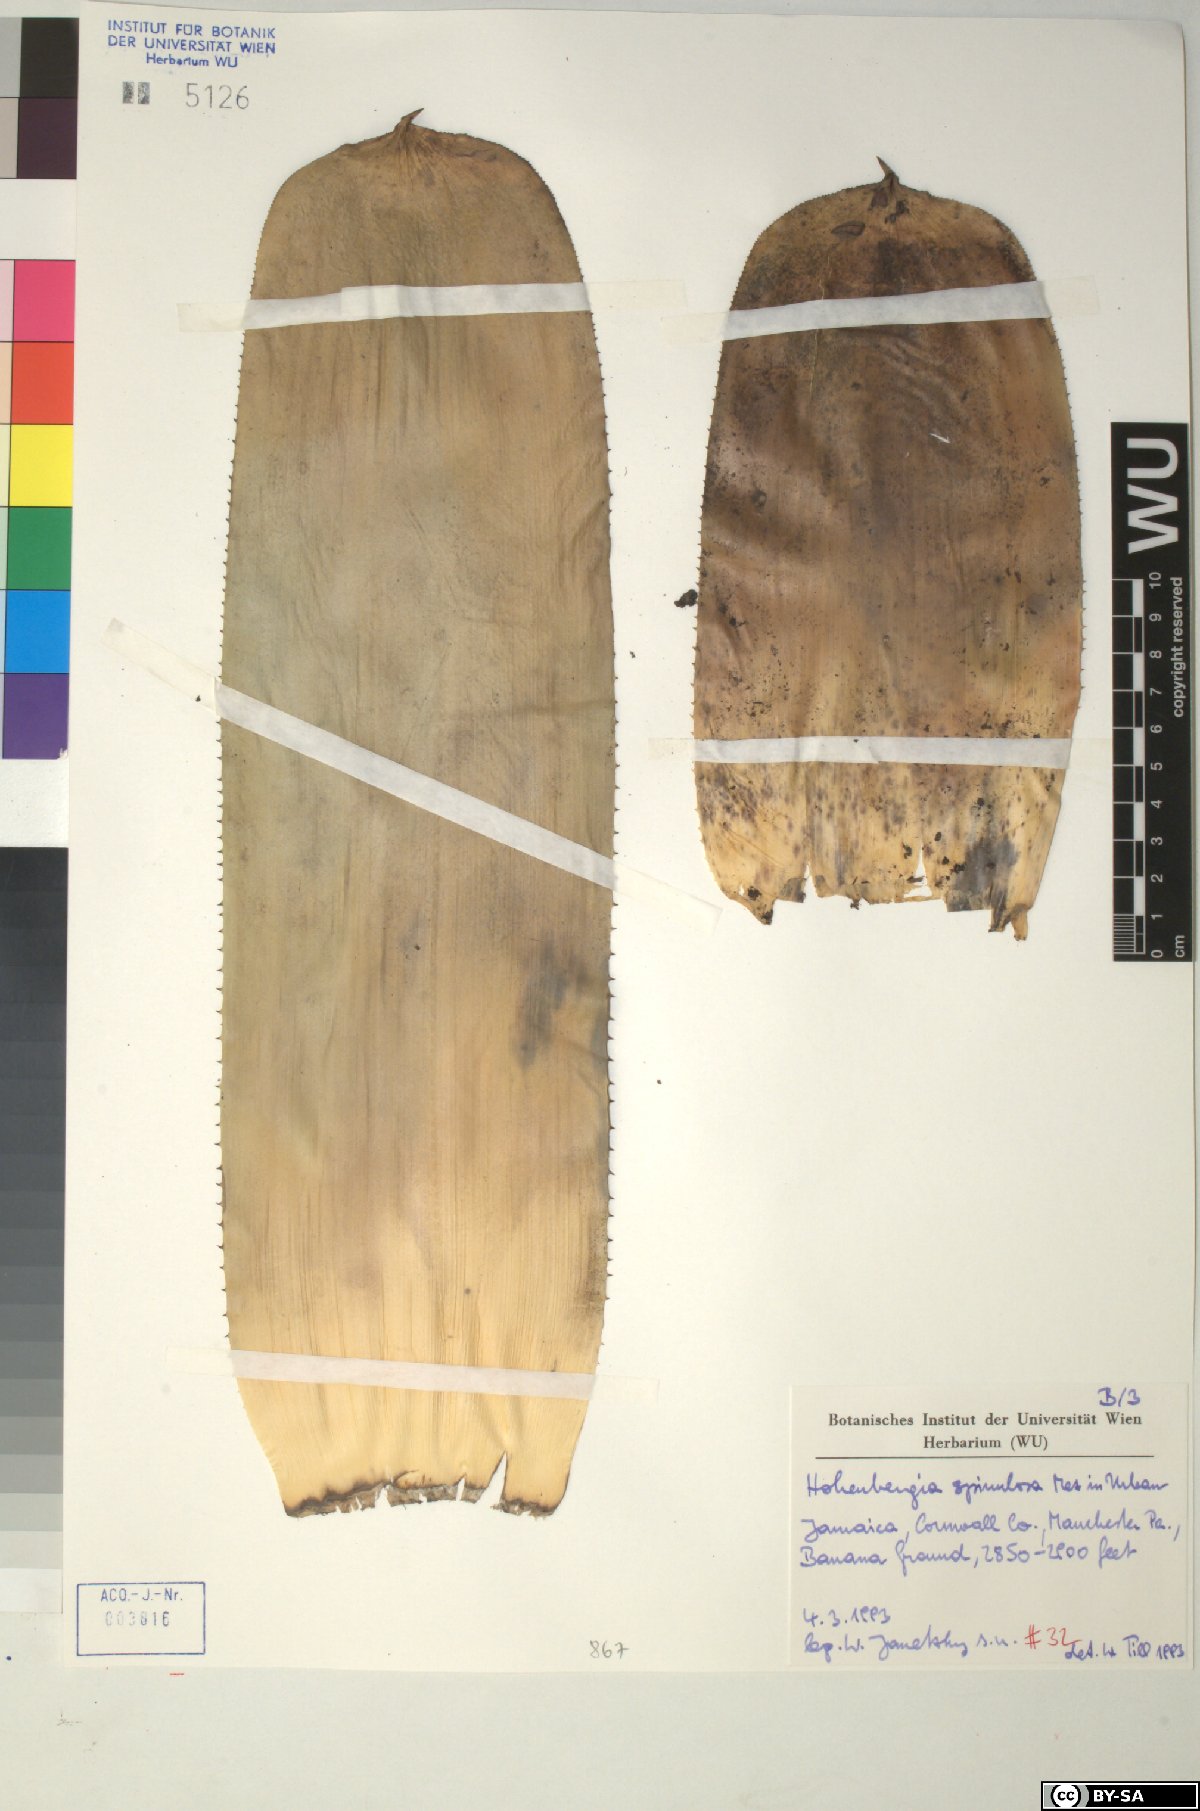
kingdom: Plantae
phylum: Tracheophyta
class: Liliopsida
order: Poales
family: Bromeliaceae
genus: Wittmackia
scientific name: Wittmackia spinulosa
